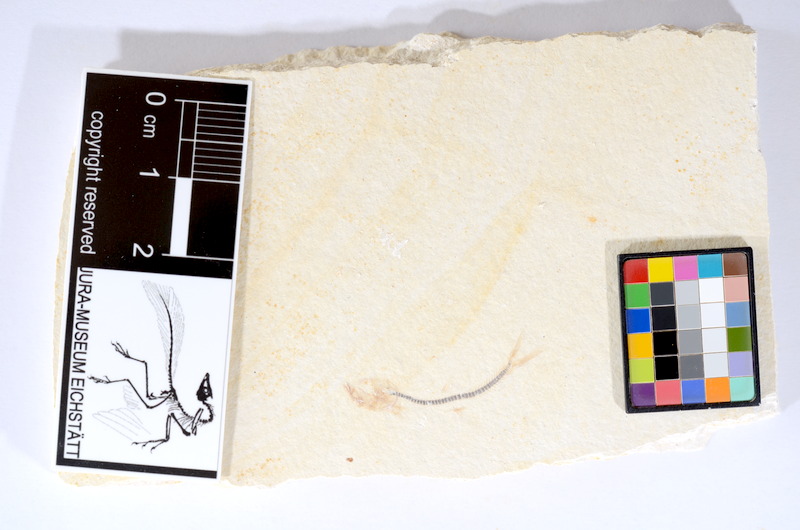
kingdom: Animalia
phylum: Chordata
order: Salmoniformes
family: Orthogonikleithridae
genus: Orthogonikleithrus
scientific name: Orthogonikleithrus hoelli
